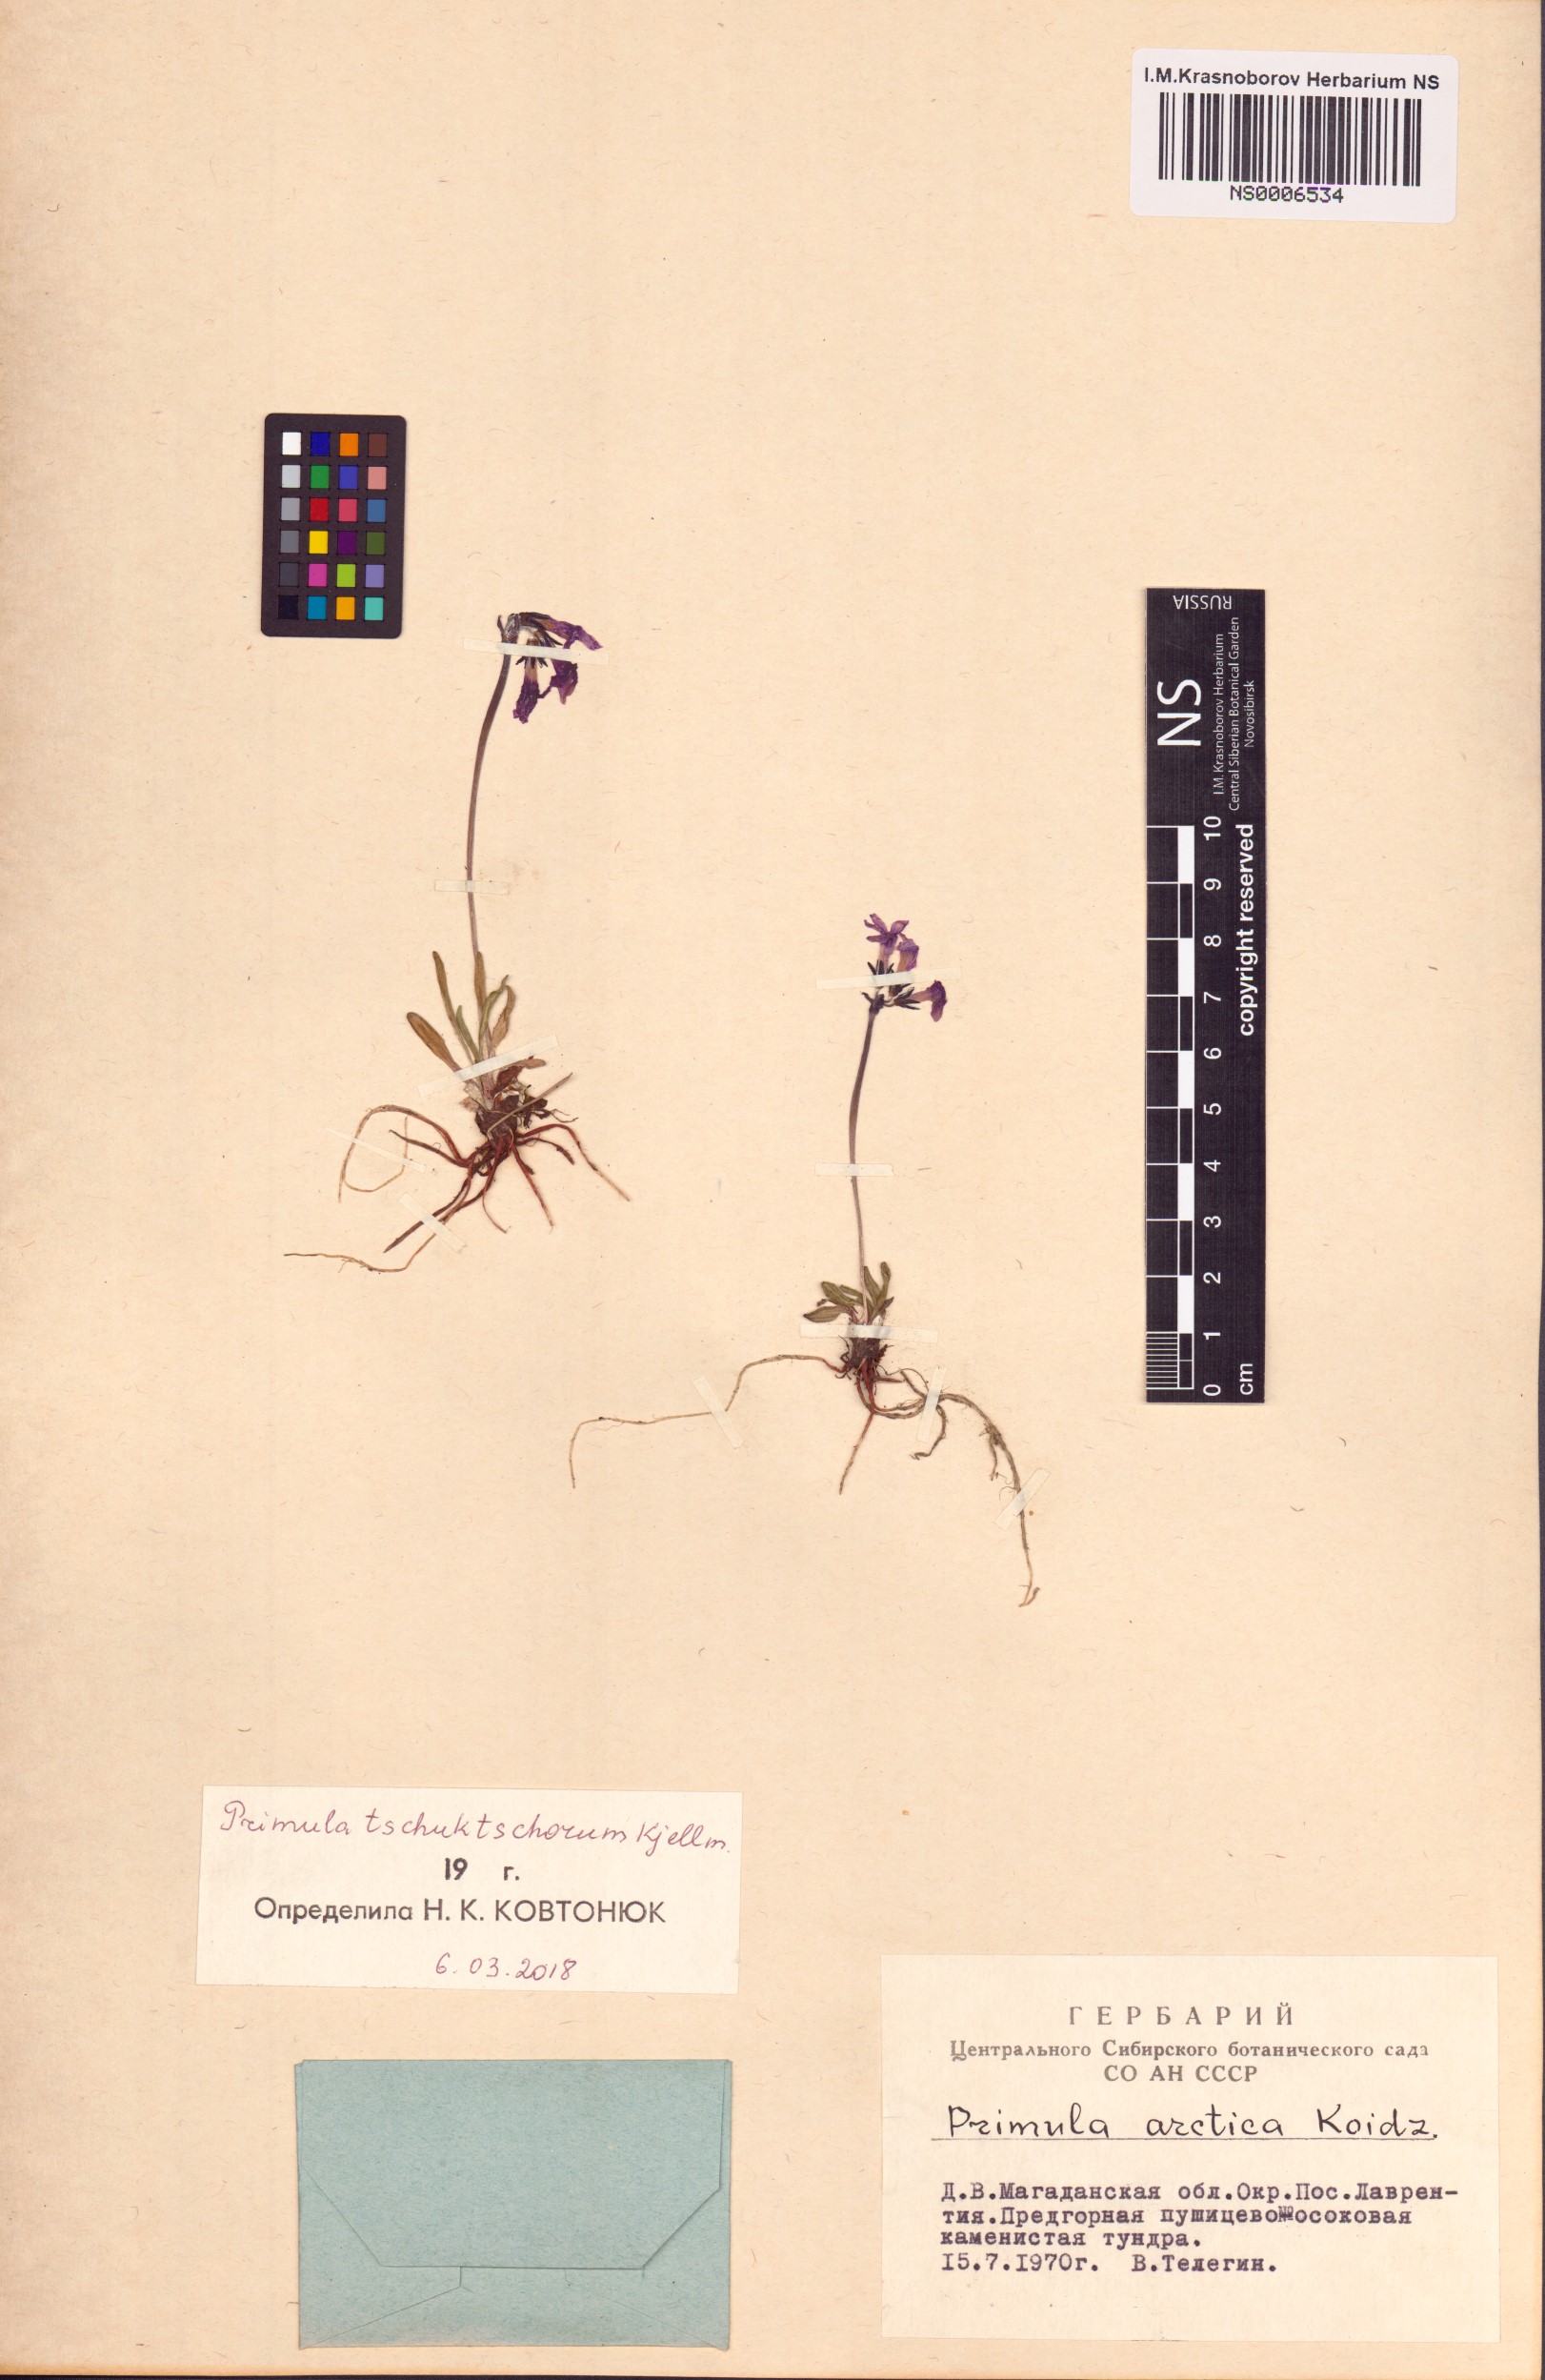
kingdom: Plantae
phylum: Tracheophyta
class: Magnoliopsida
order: Ericales
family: Primulaceae
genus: Primula
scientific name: Primula tschuktschorum
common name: Chukchi primrose
